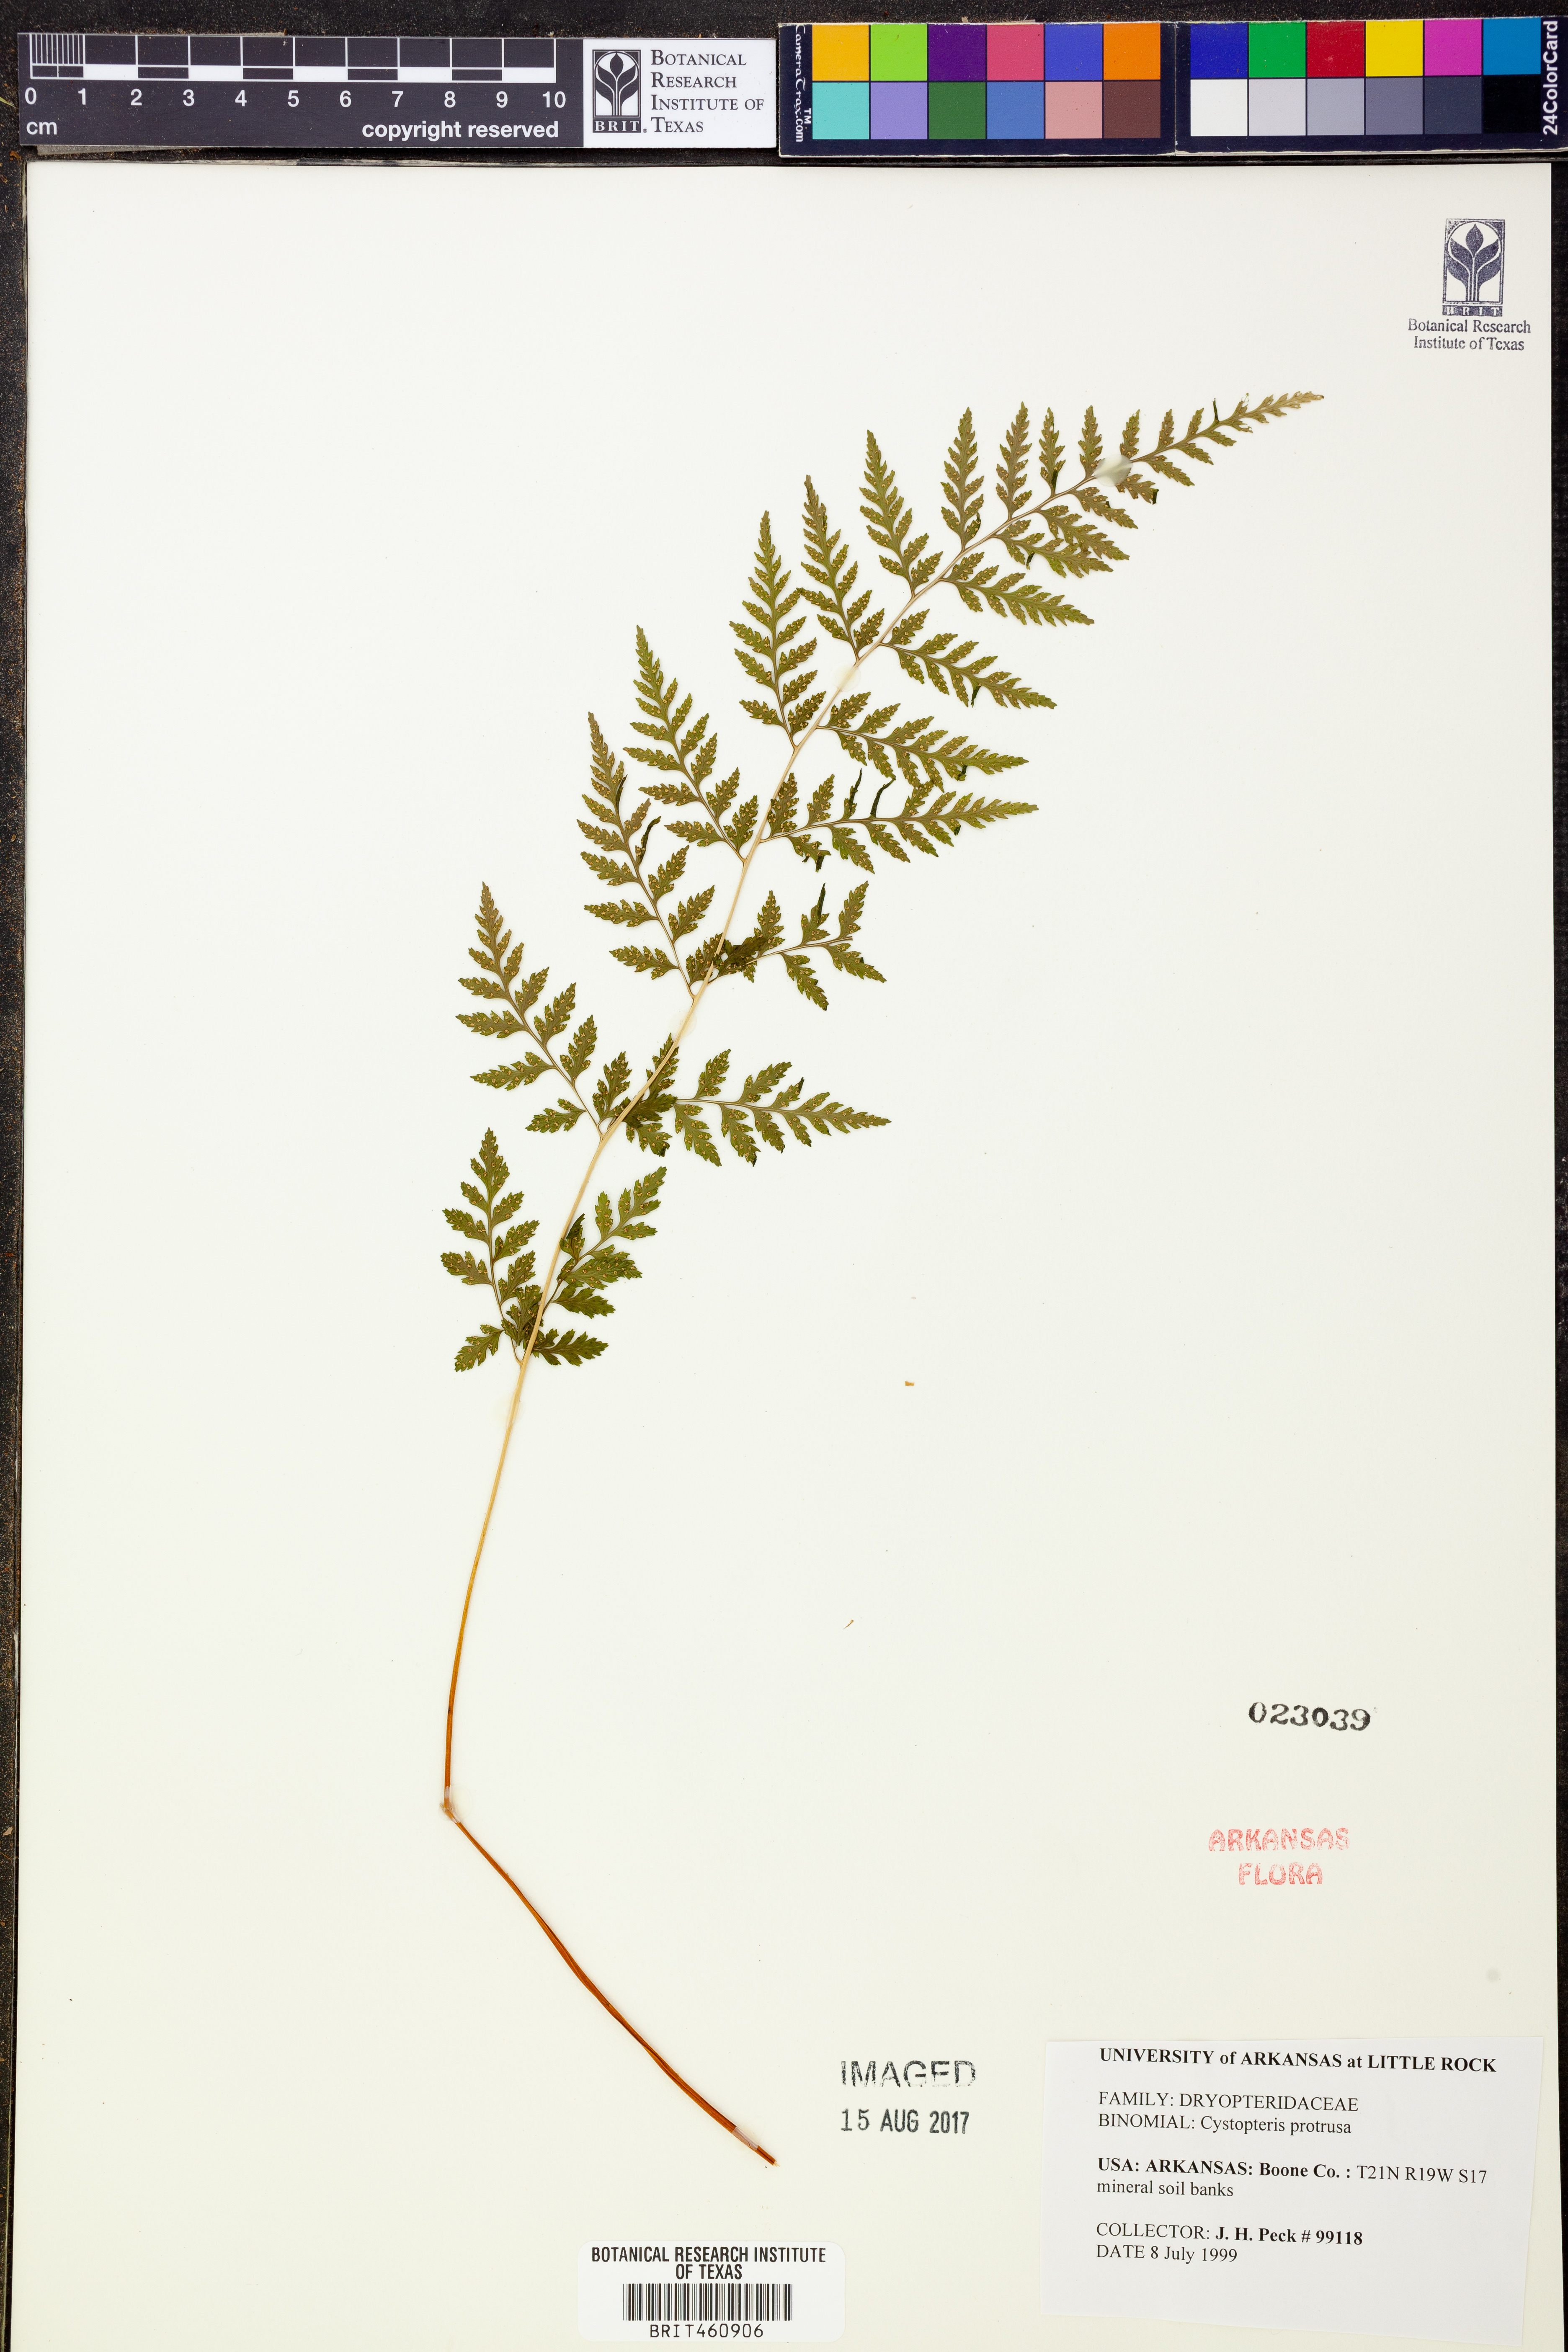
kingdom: Plantae
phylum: Tracheophyta
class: Polypodiopsida
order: Polypodiales
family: Cystopteridaceae
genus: Cystopteris
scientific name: Cystopteris protrusa
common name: Lowland brittle fern
